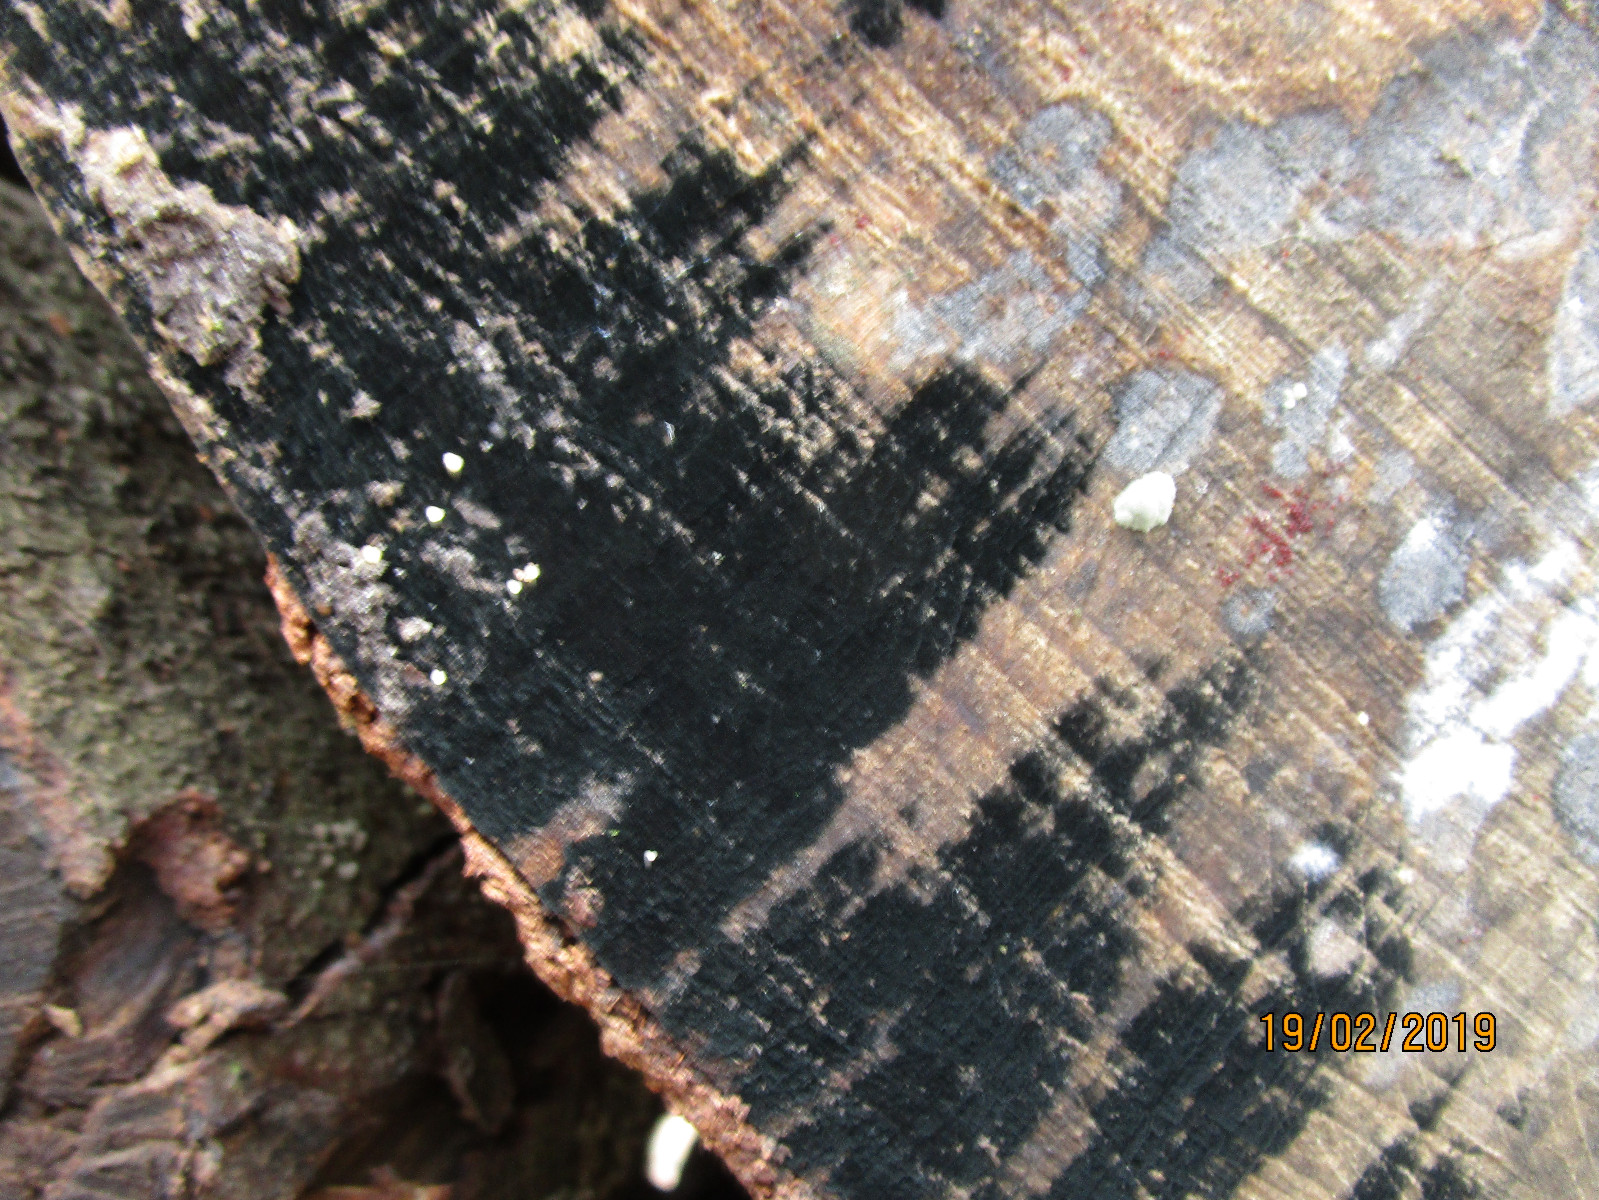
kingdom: Fungi
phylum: Ascomycota
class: Leotiomycetes
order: Helotiales
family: Helotiaceae
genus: Bispora
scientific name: Bispora pallescens
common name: måtte-snitskive
